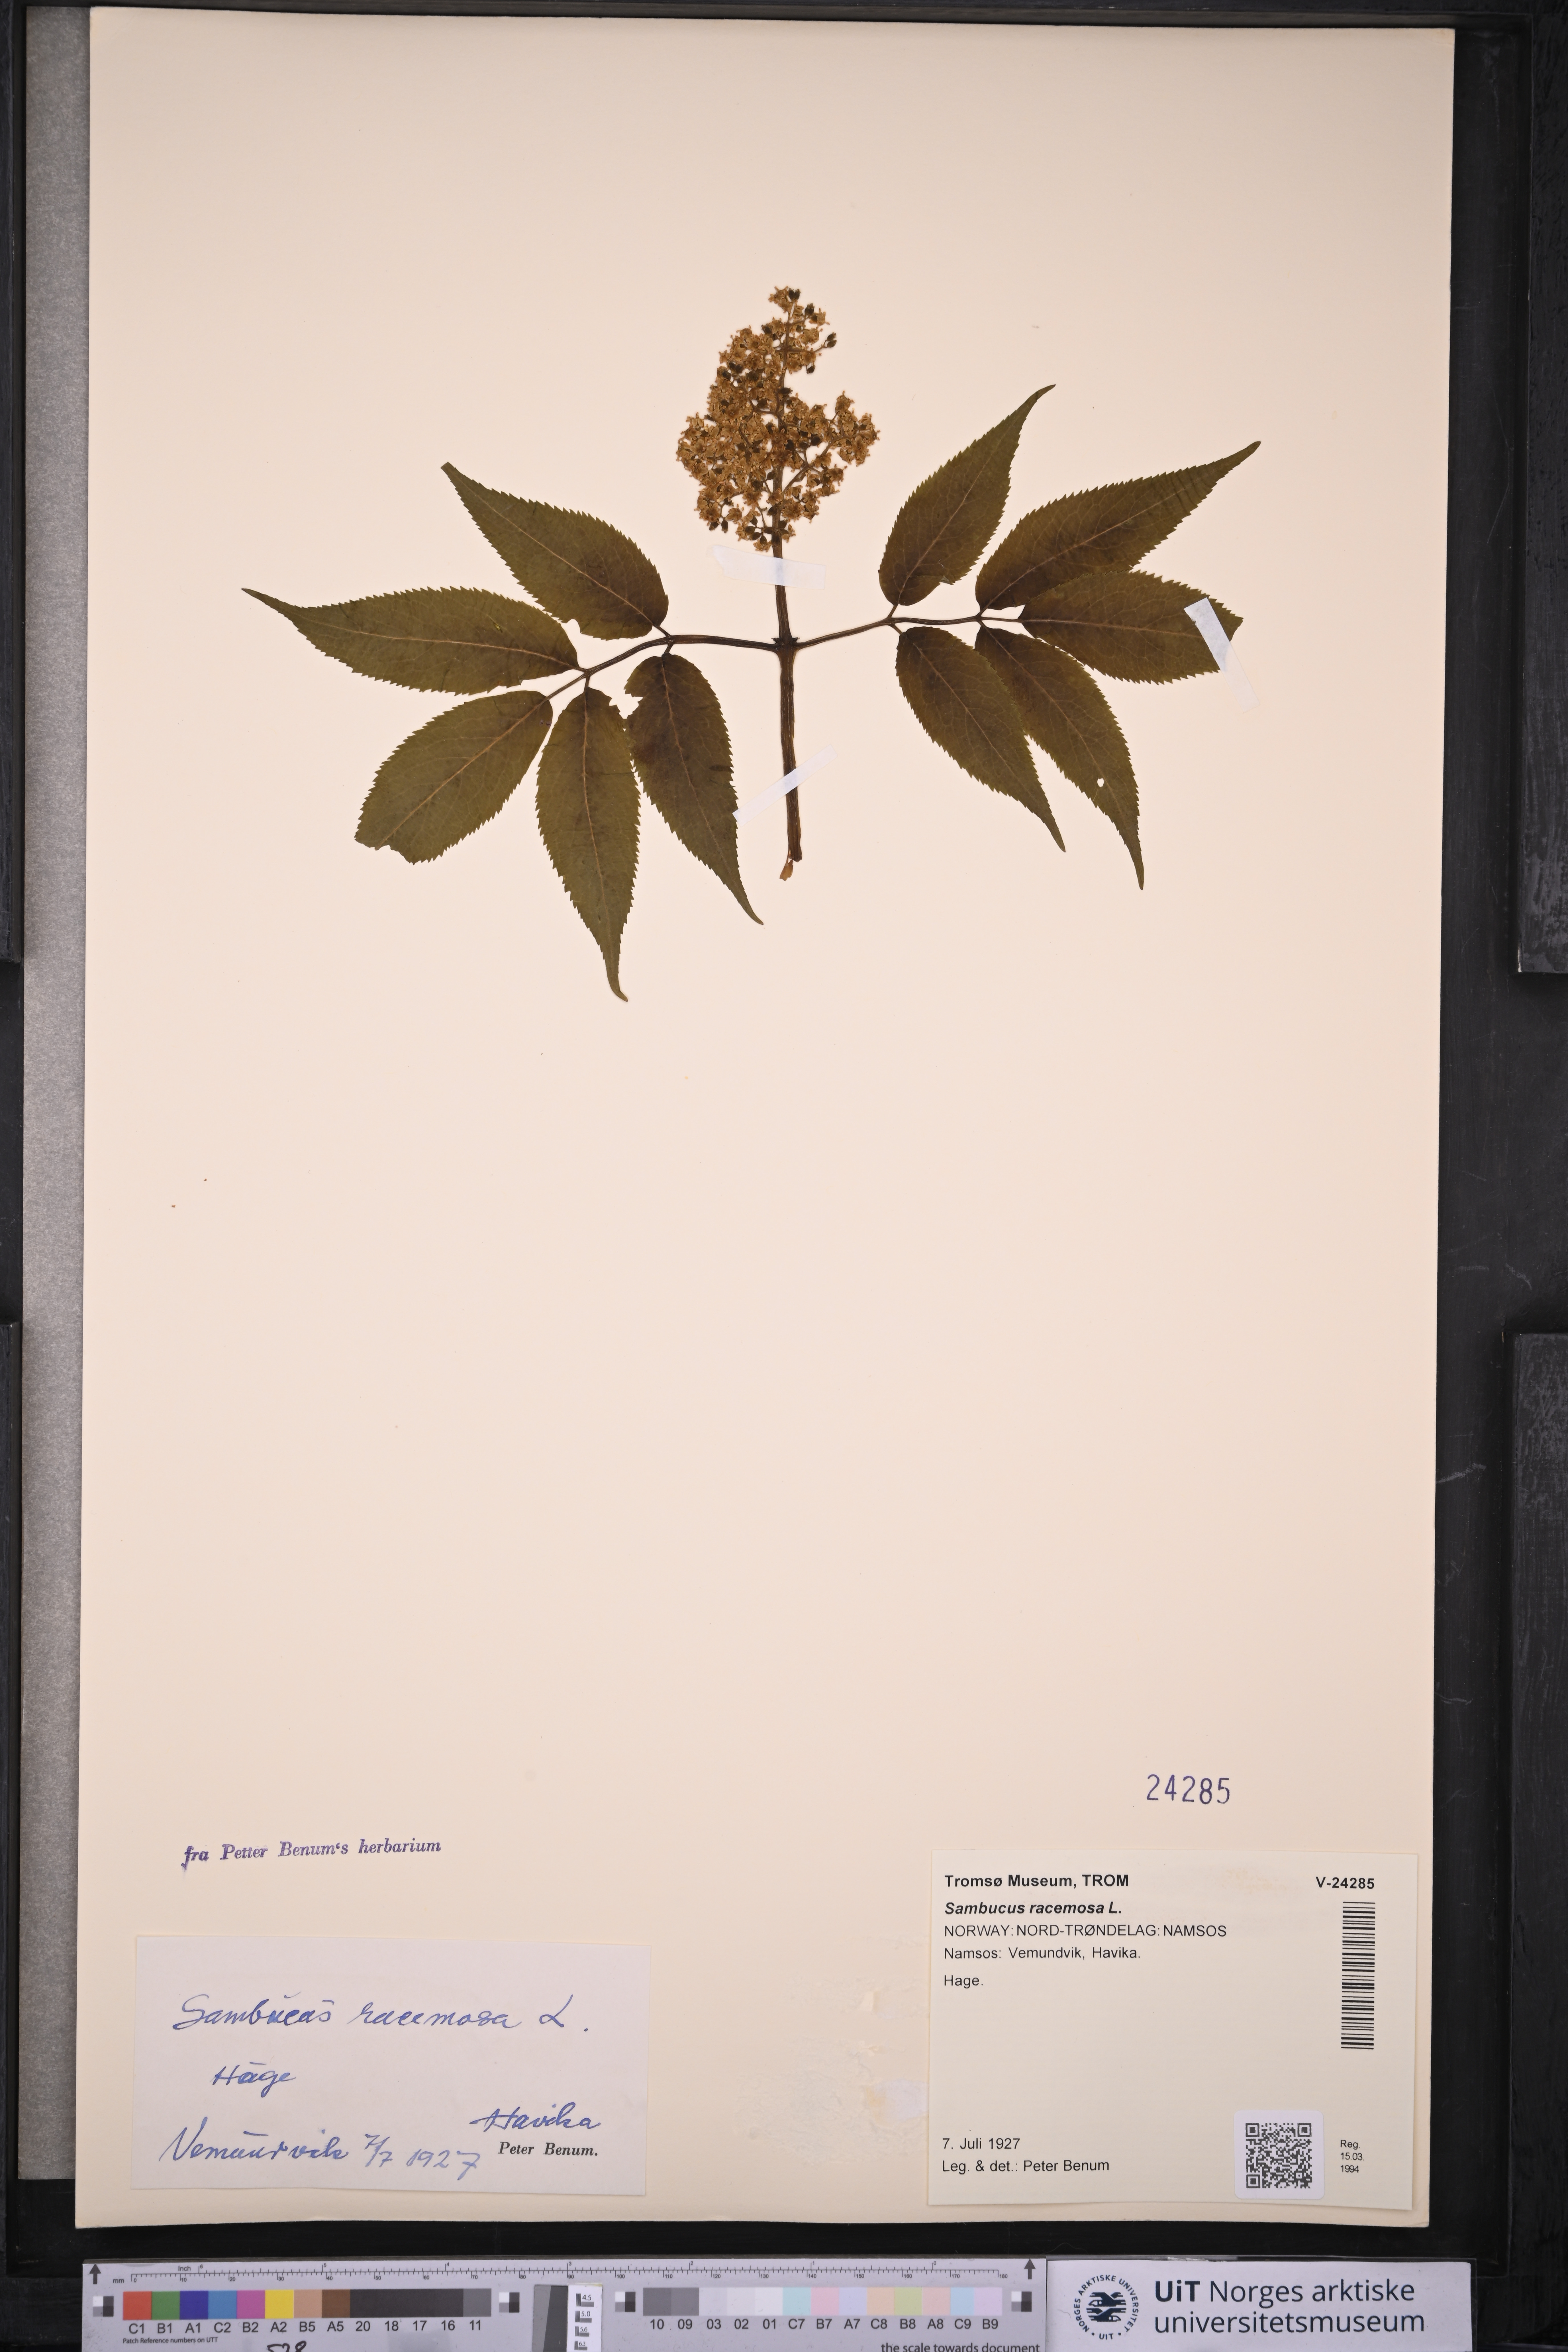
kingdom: Plantae
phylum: Tracheophyta
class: Magnoliopsida
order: Dipsacales
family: Viburnaceae
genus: Sambucus
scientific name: Sambucus racemosa
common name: Red-berried elder
